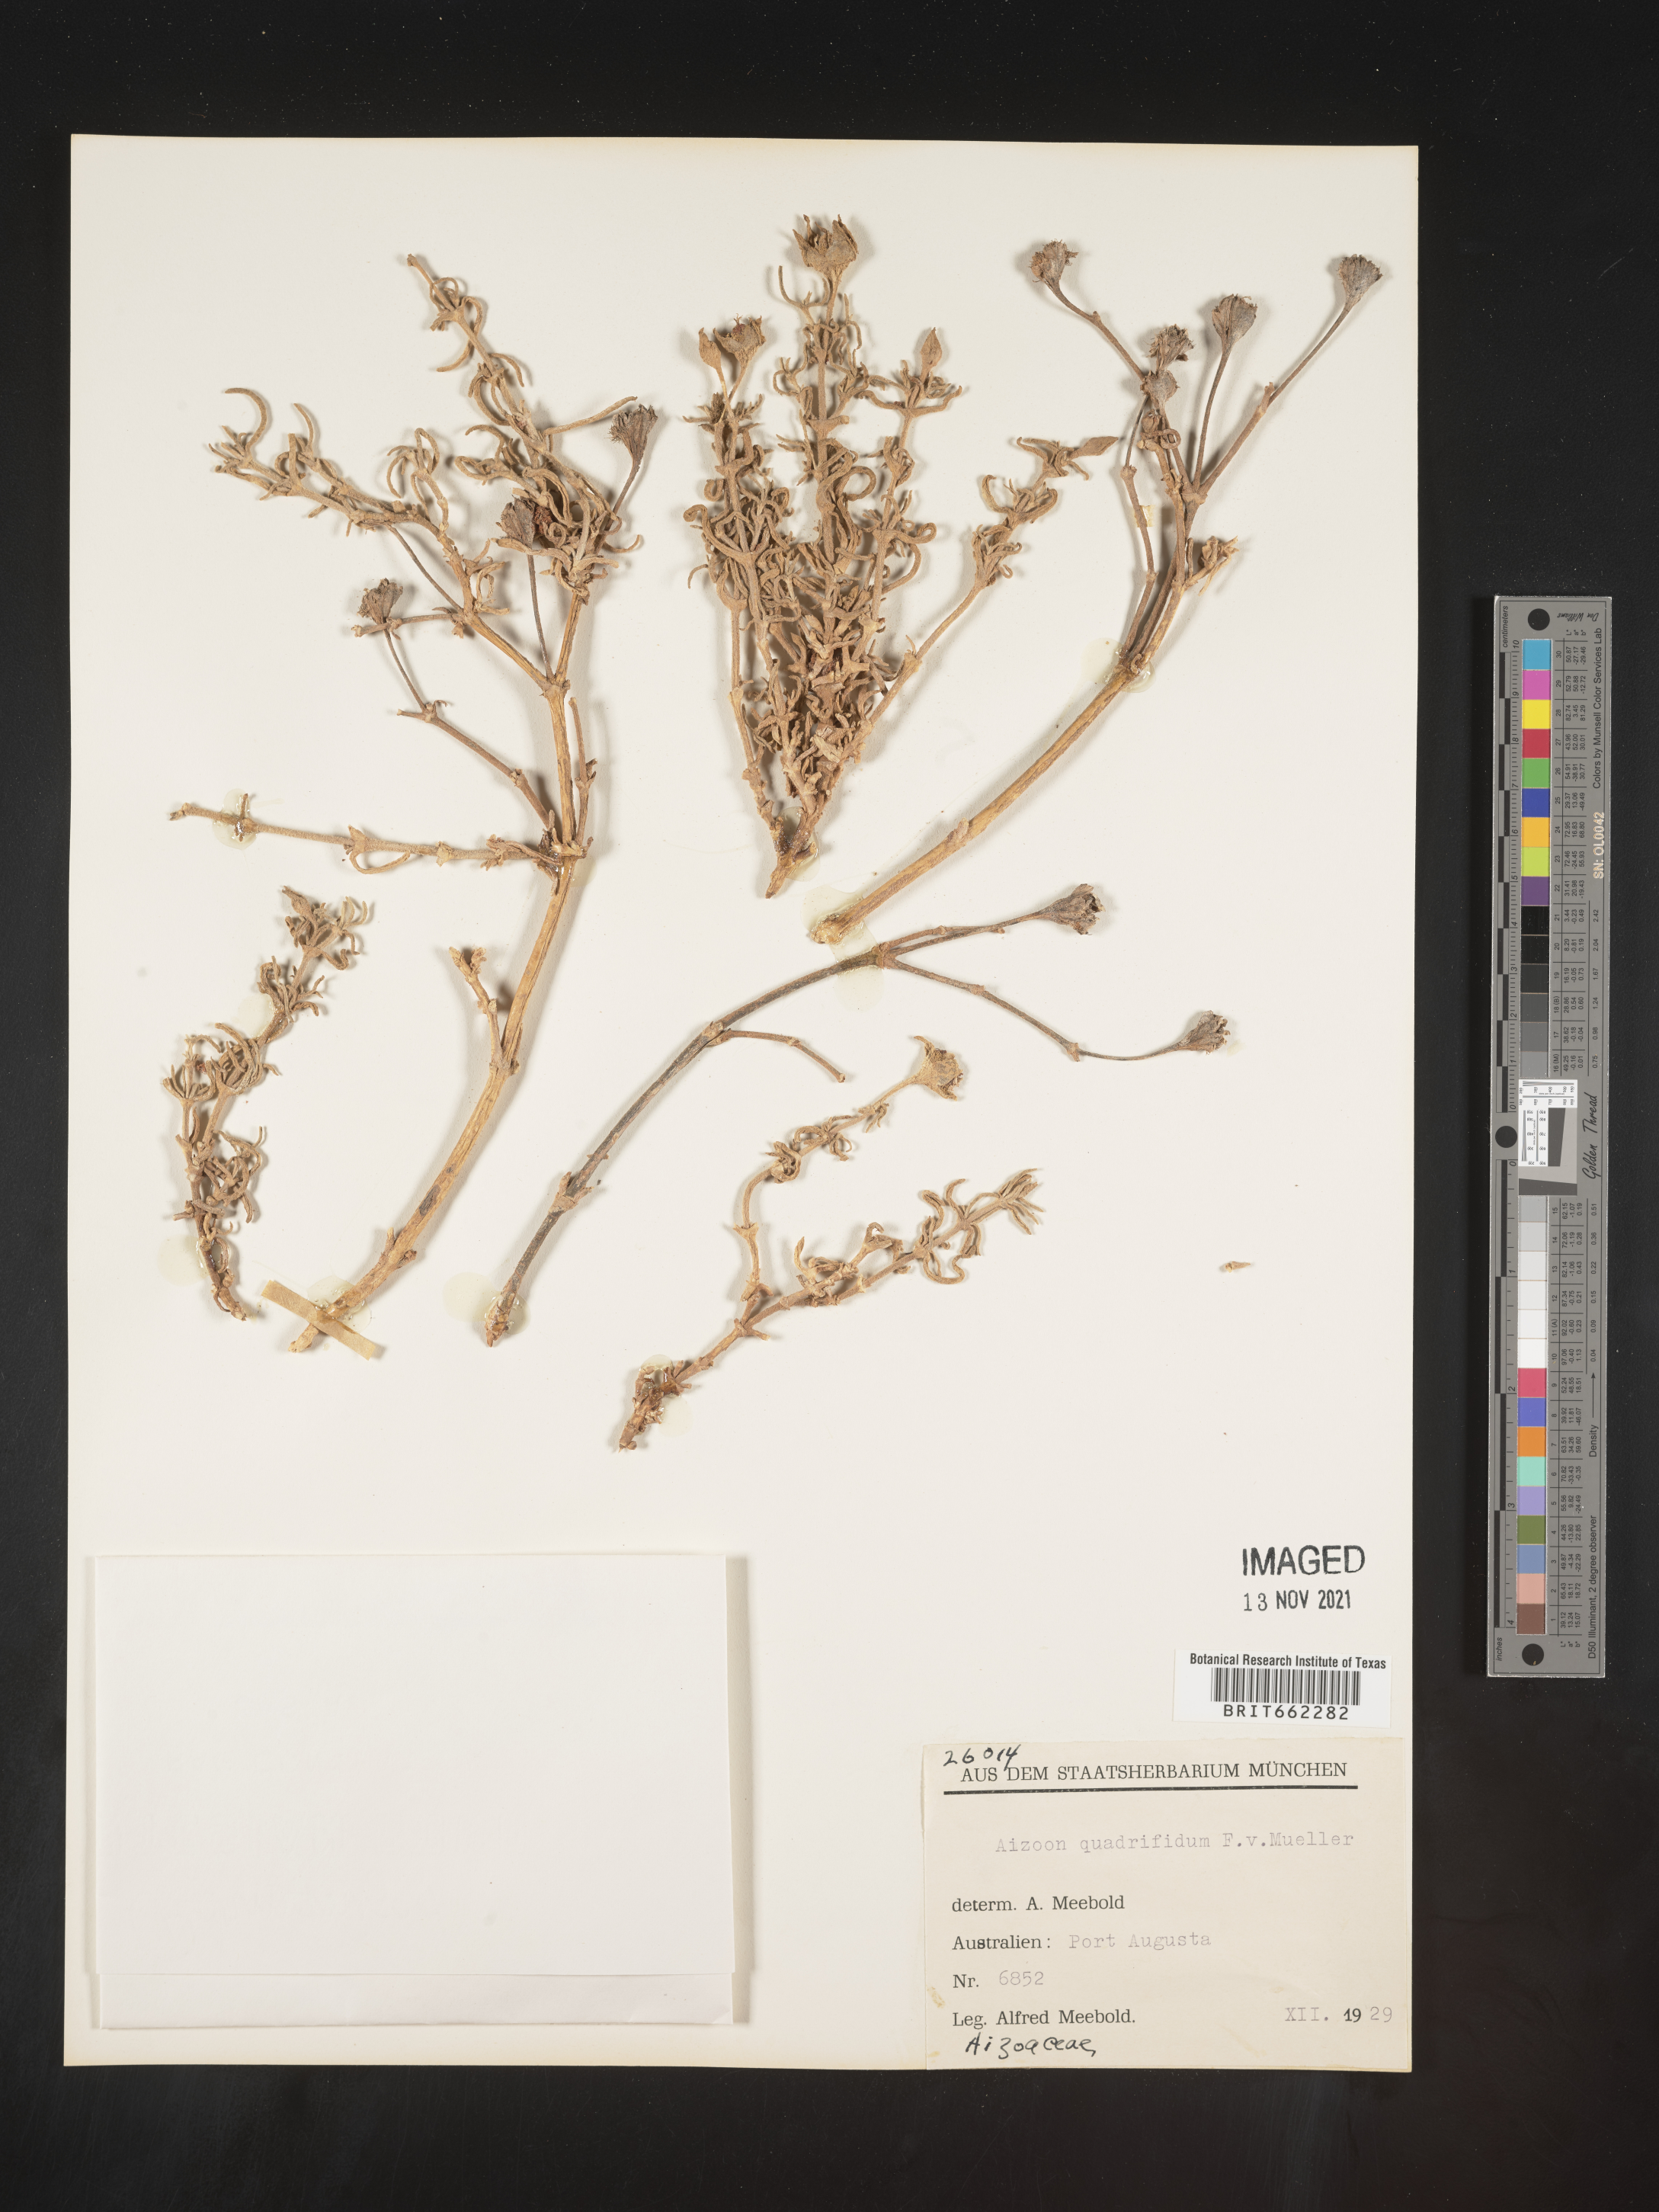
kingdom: Plantae
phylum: Tracheophyta
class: Magnoliopsida
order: Caryophyllales
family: Aizoaceae
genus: Aizoon
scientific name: Aizoon
